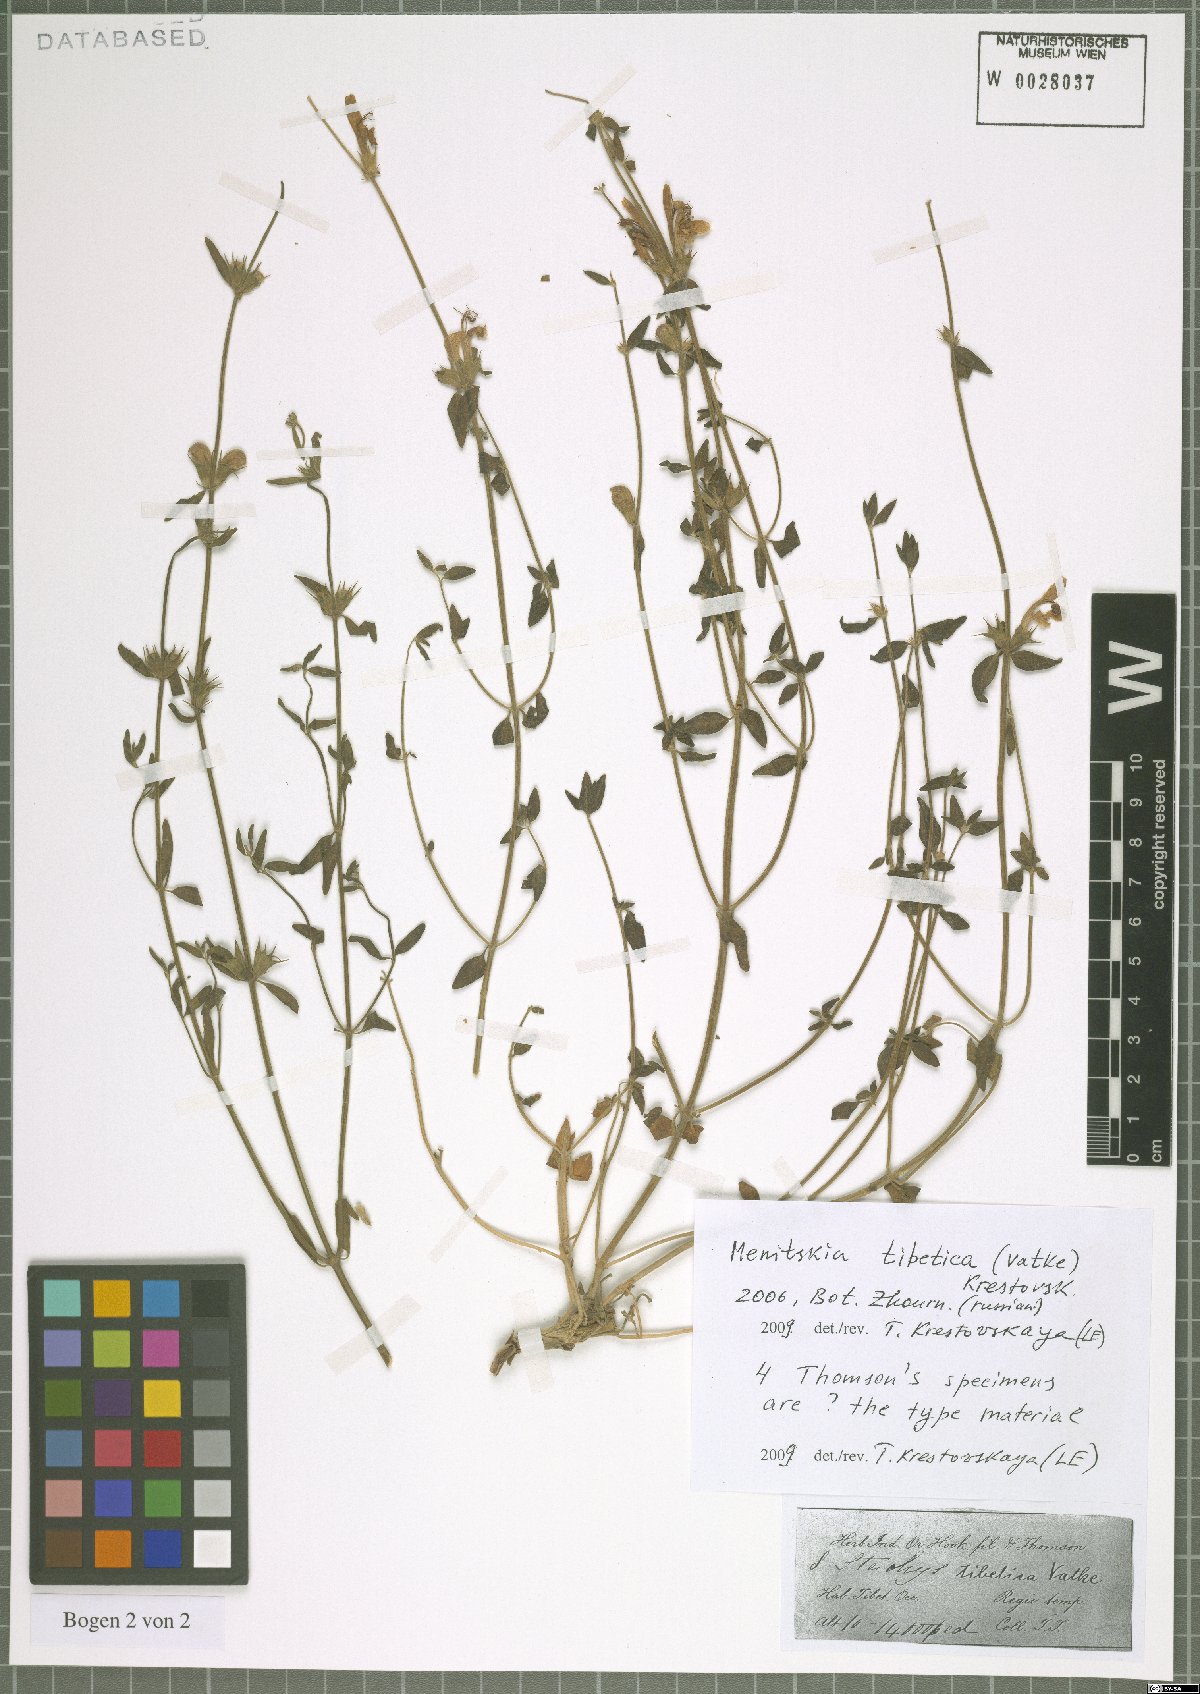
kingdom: Plantae
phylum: Tracheophyta
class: Magnoliopsida
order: Lamiales
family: Lamiaceae
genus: Eriophyton
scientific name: Eriophyton tibeticum
